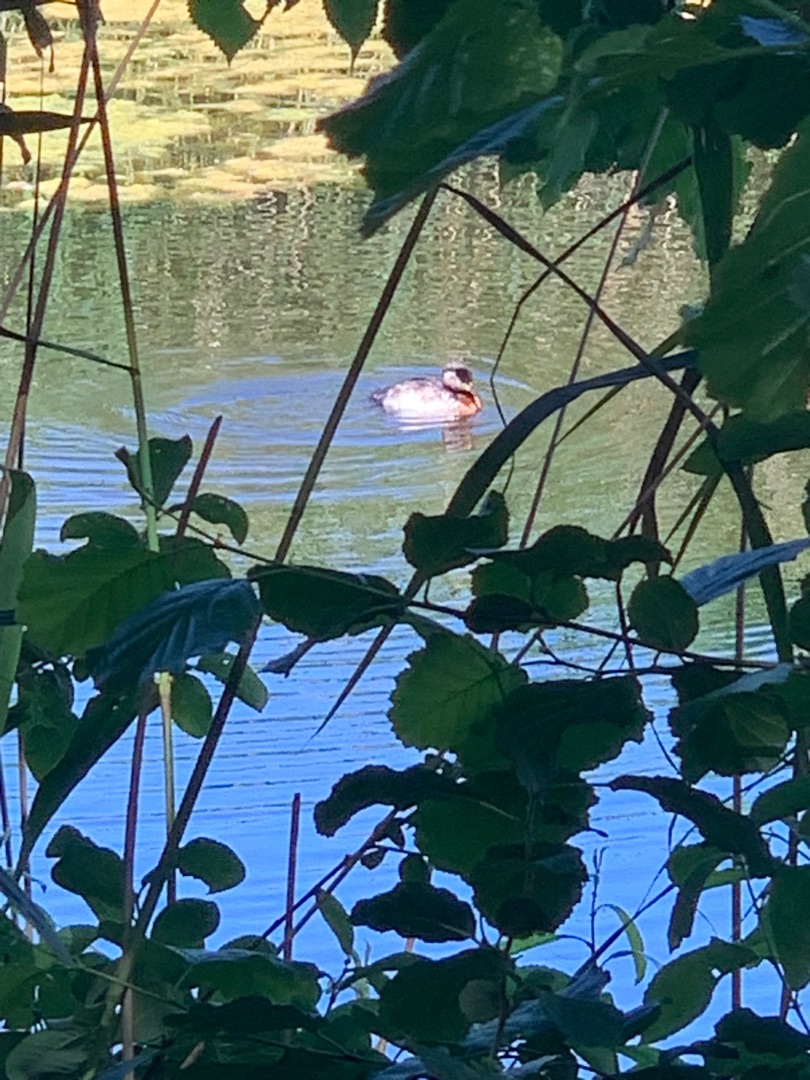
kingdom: Animalia
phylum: Chordata
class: Aves
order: Podicipediformes
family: Podicipedidae
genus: Podiceps
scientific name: Podiceps grisegena
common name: Gråstrubet lappedykker
